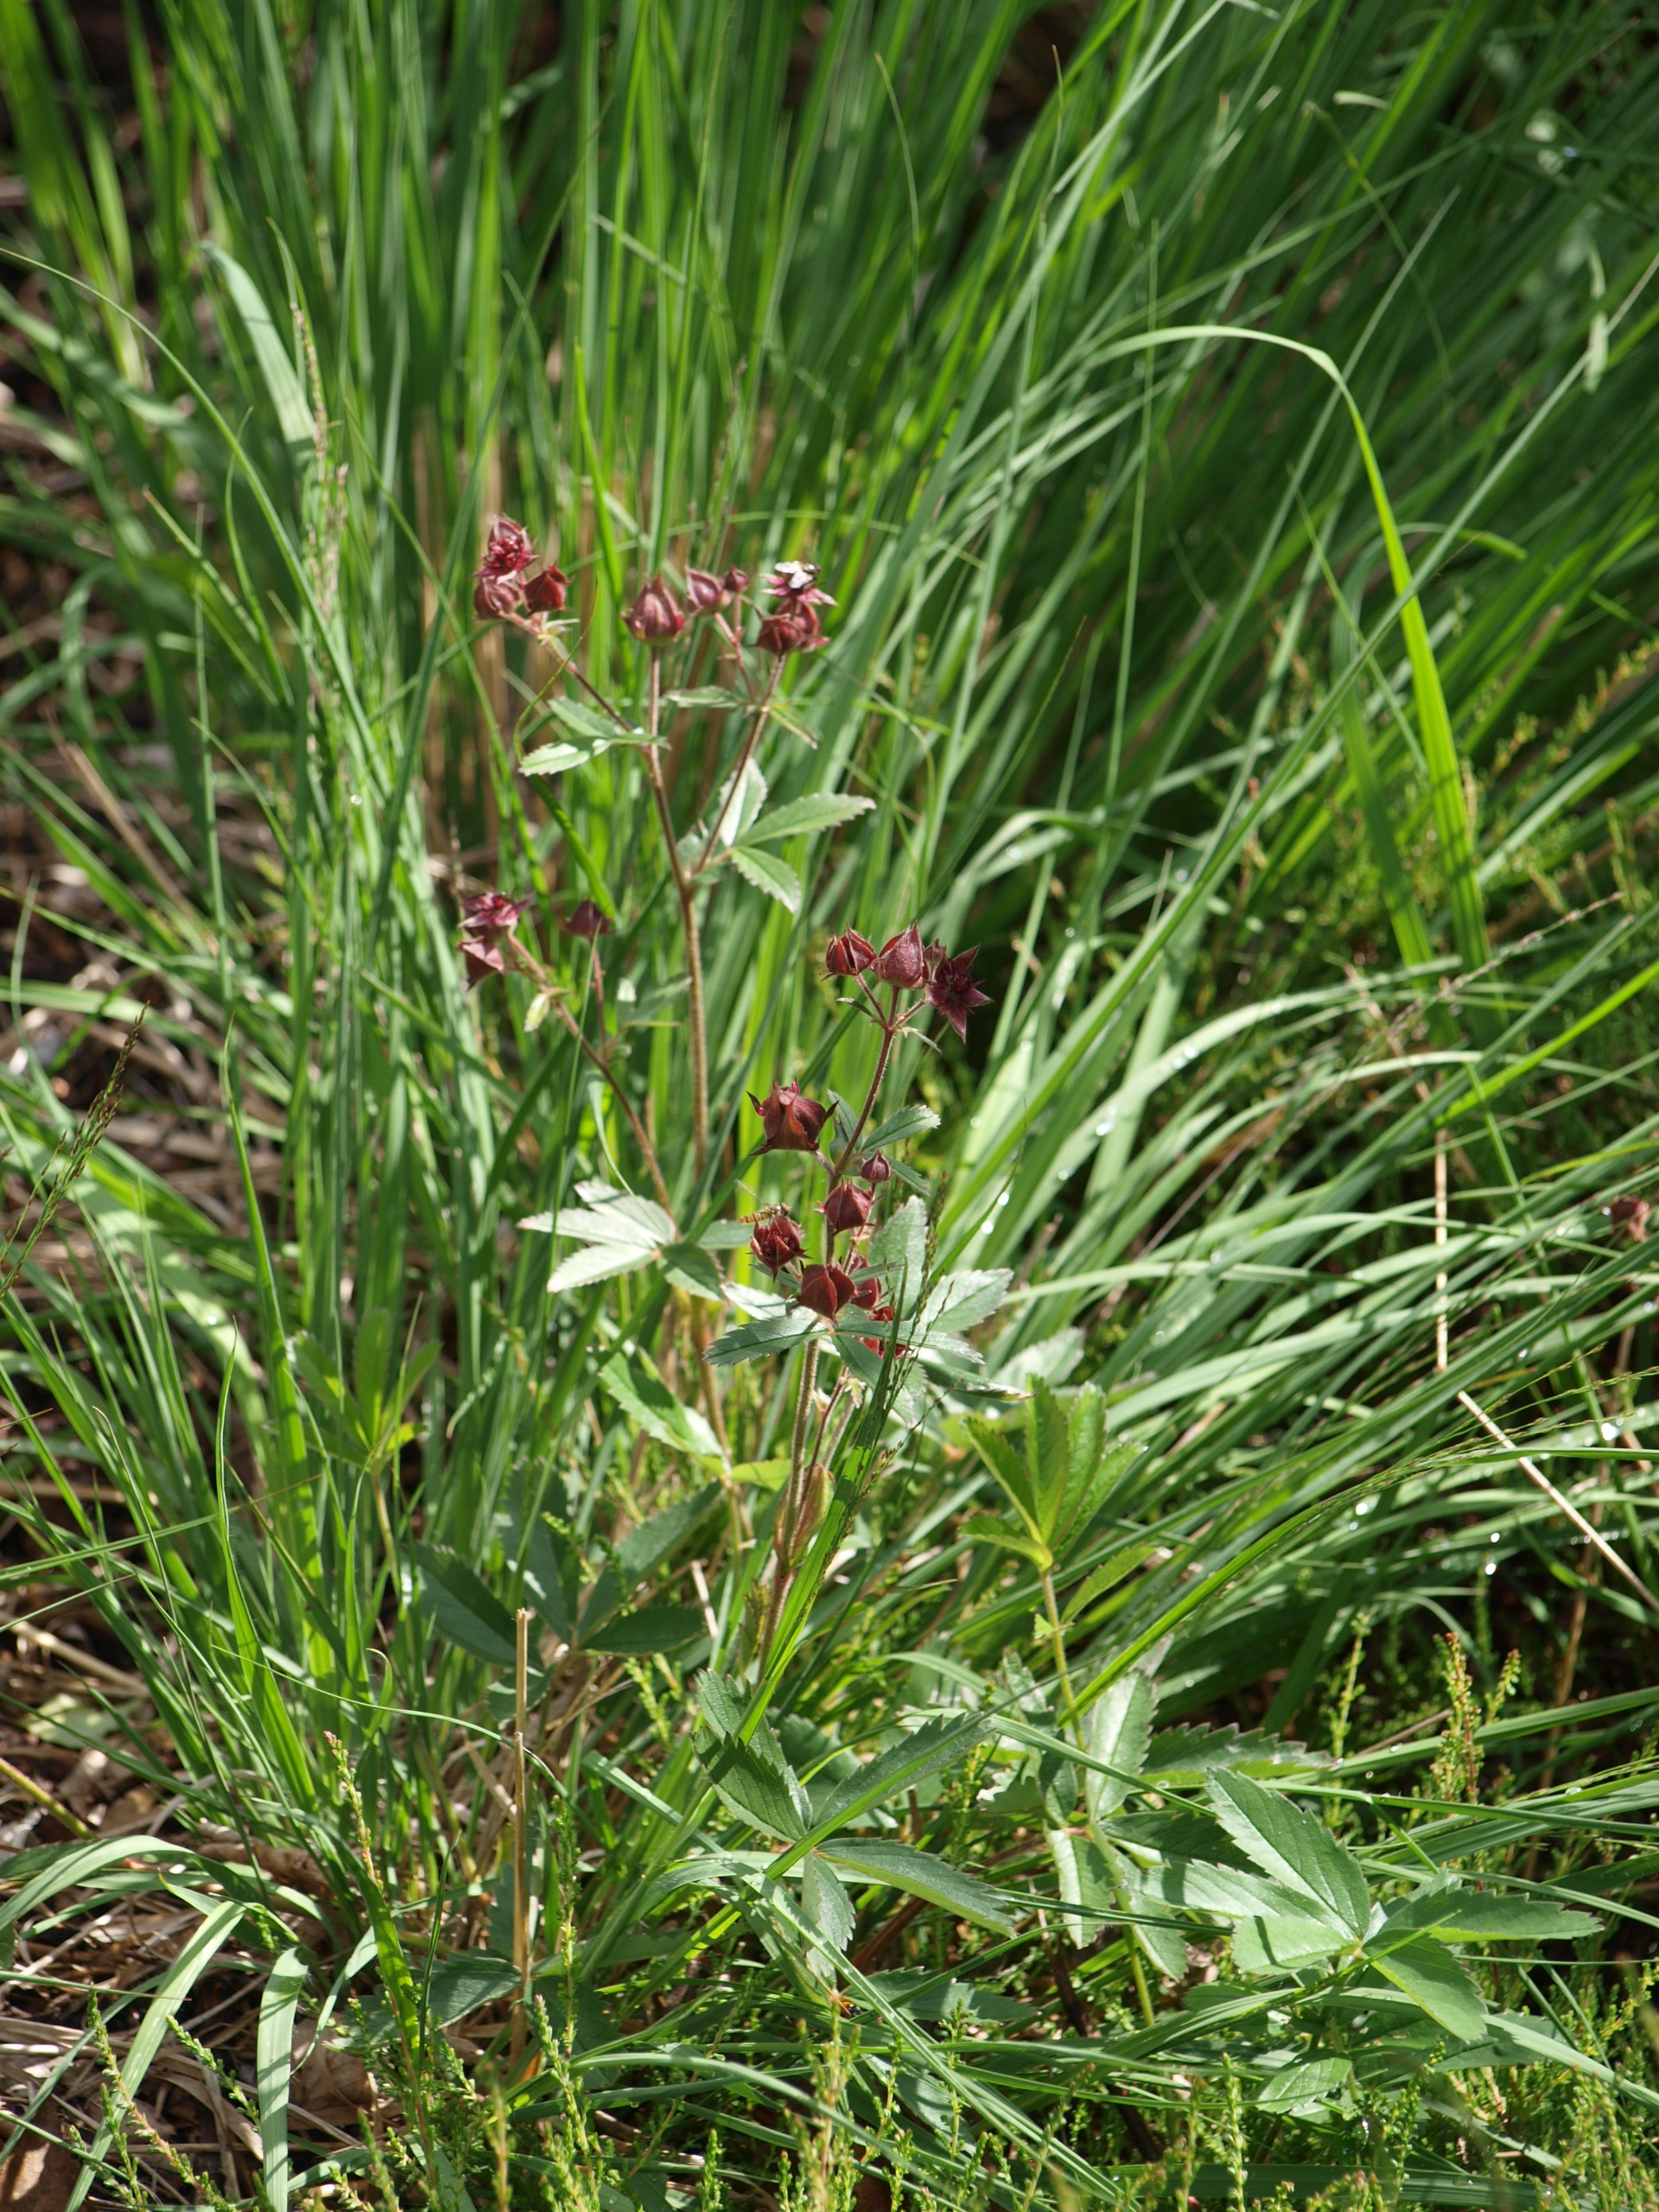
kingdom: Plantae
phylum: Tracheophyta
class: Magnoliopsida
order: Rosales
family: Rosaceae
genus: Comarum
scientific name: Comarum palustre
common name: Kragefod
